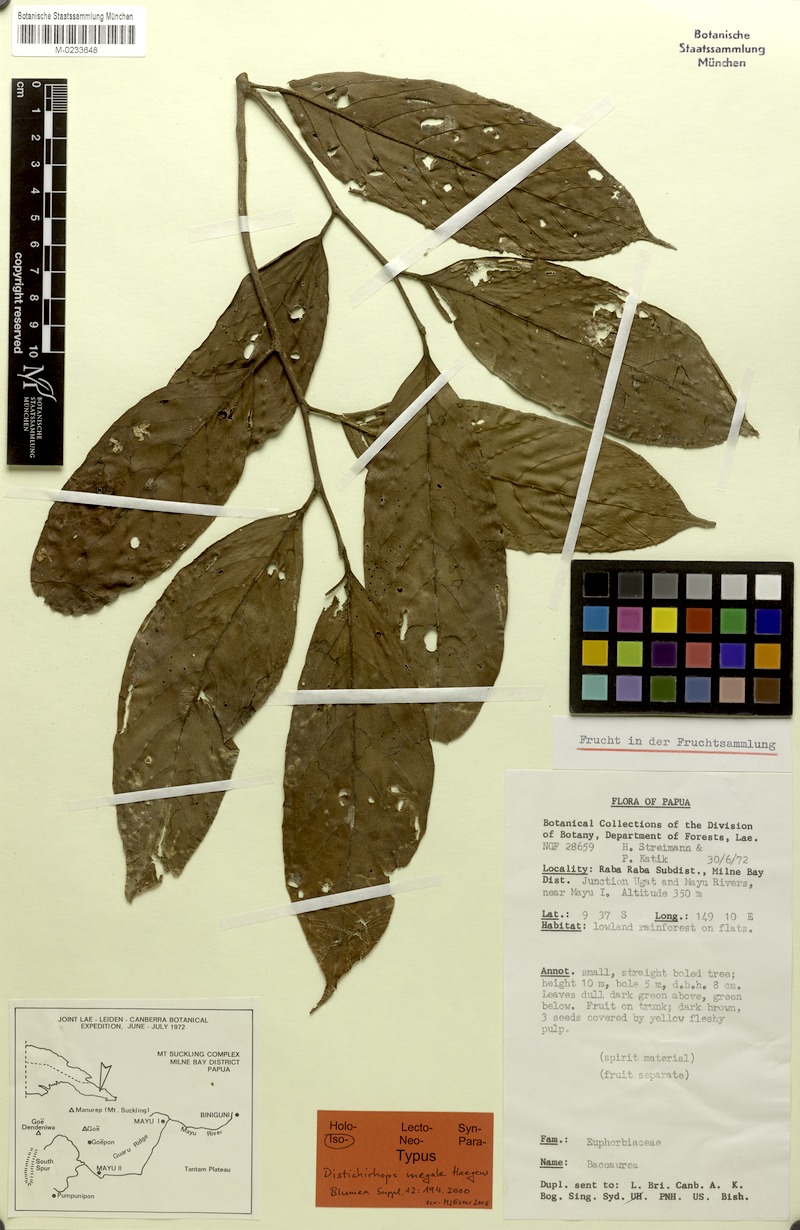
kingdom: Plantae
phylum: Tracheophyta
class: Magnoliopsida
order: Malpighiales
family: Phyllanthaceae
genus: Distichirhops
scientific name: Distichirhops megale
